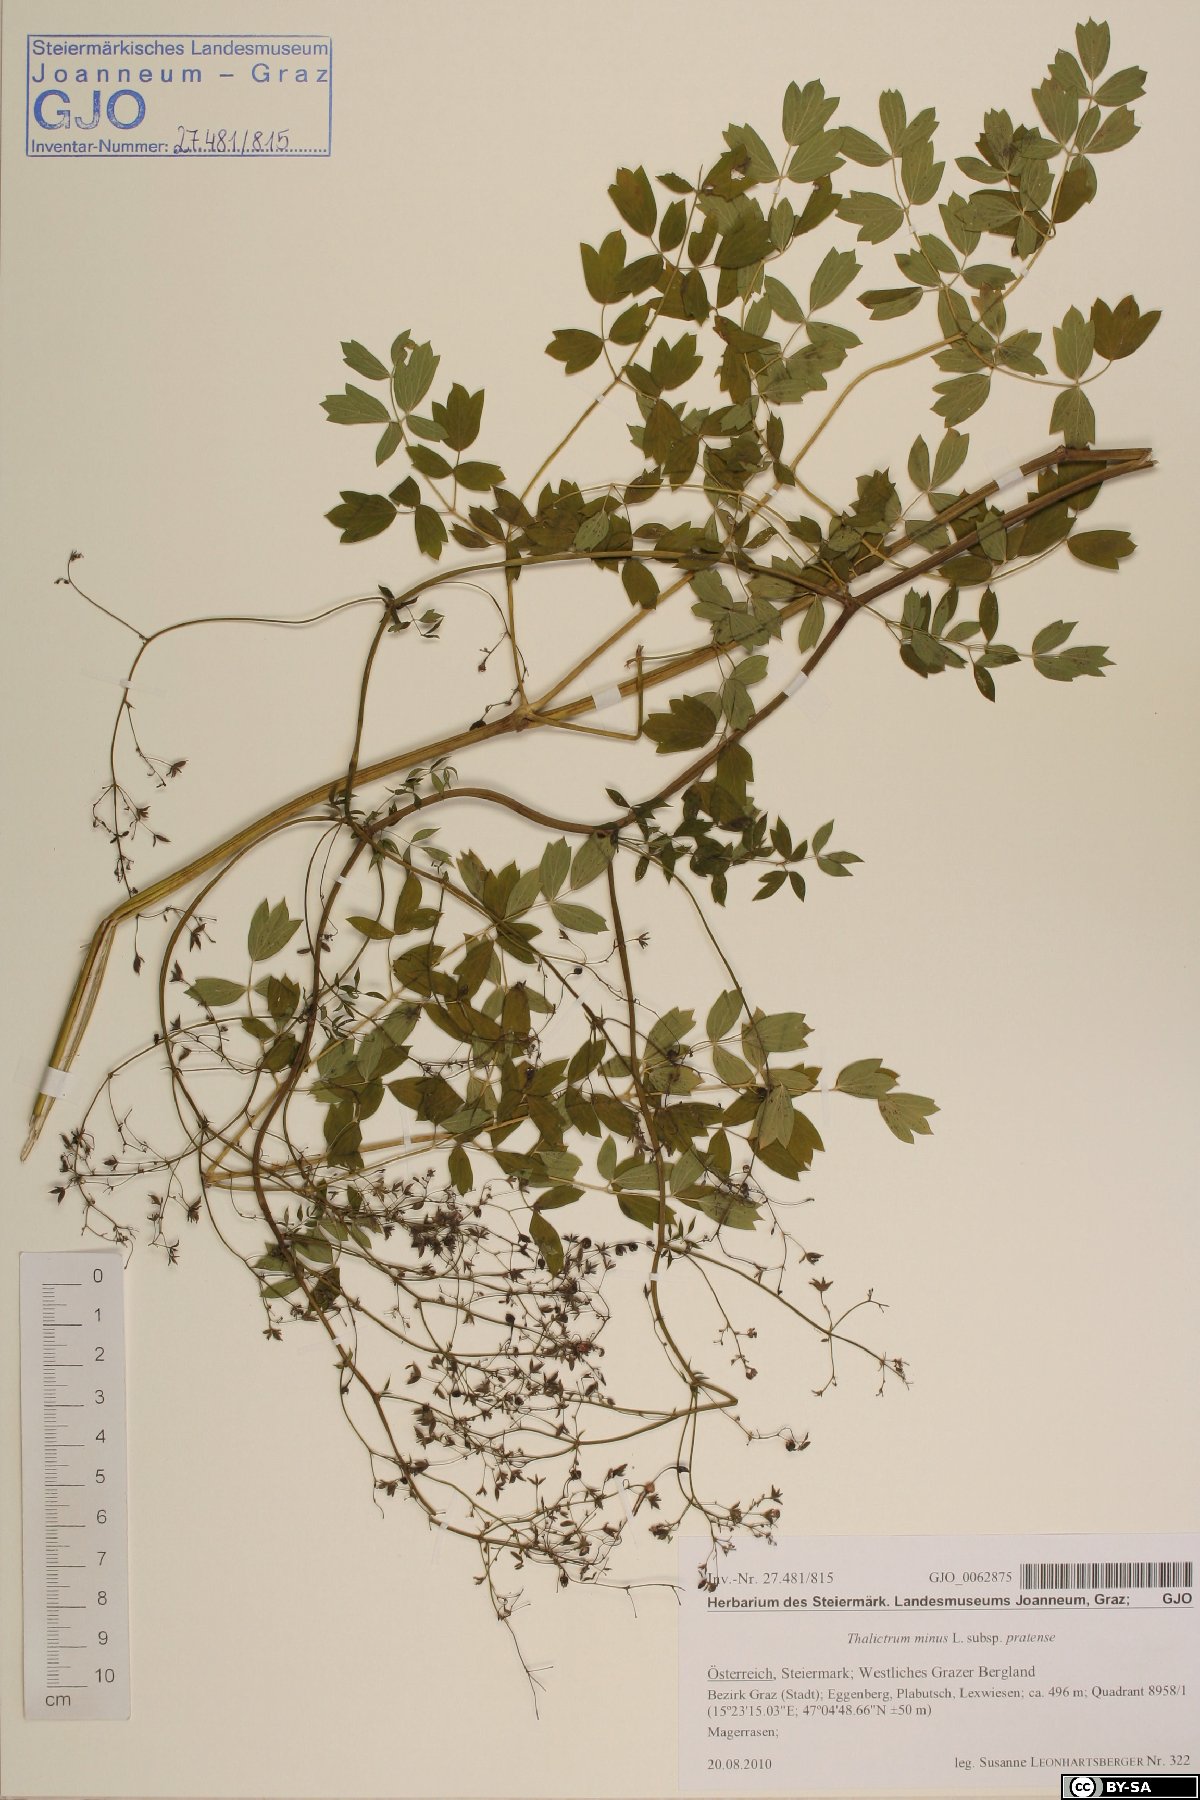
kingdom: Plantae
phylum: Tracheophyta
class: Magnoliopsida
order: Ranunculales
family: Ranunculaceae
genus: Thalictrum
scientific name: Thalictrum minus
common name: Lesser meadow-rue
